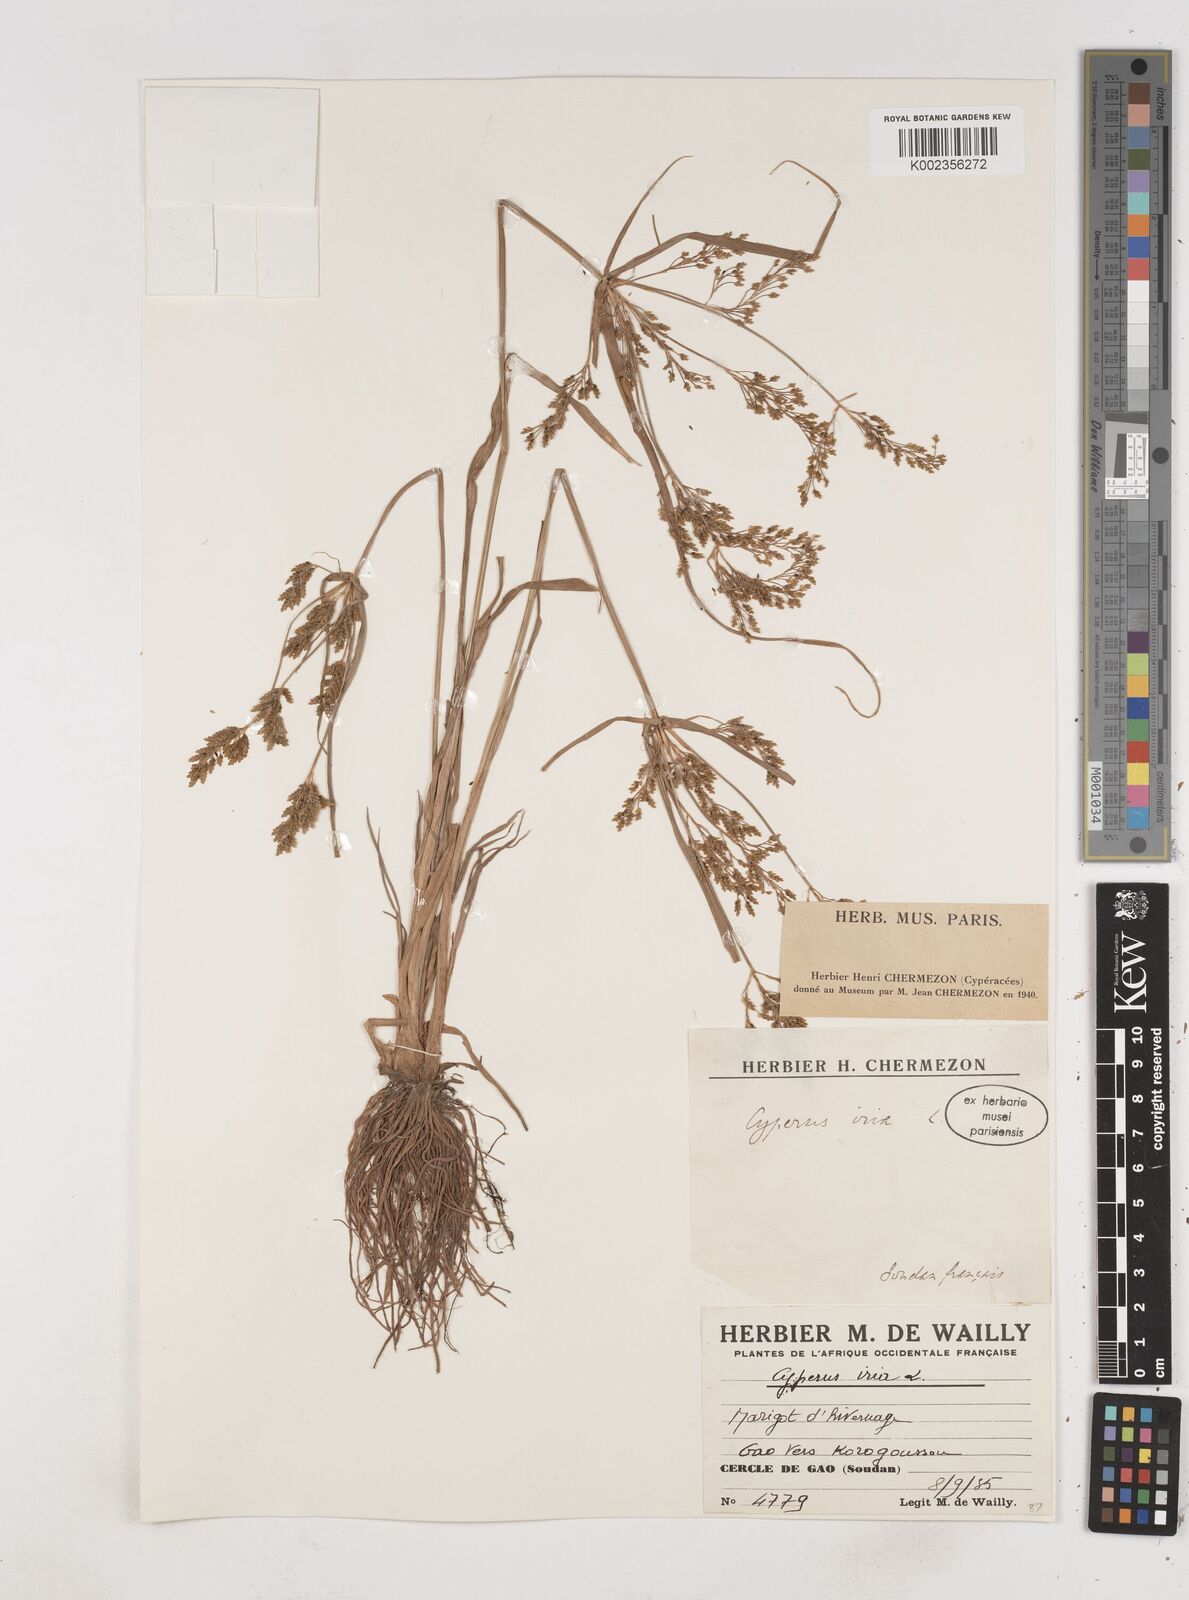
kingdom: Plantae
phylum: Tracheophyta
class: Liliopsida
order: Poales
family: Cyperaceae
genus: Cyperus
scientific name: Cyperus iria
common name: Ricefield flatsedge
